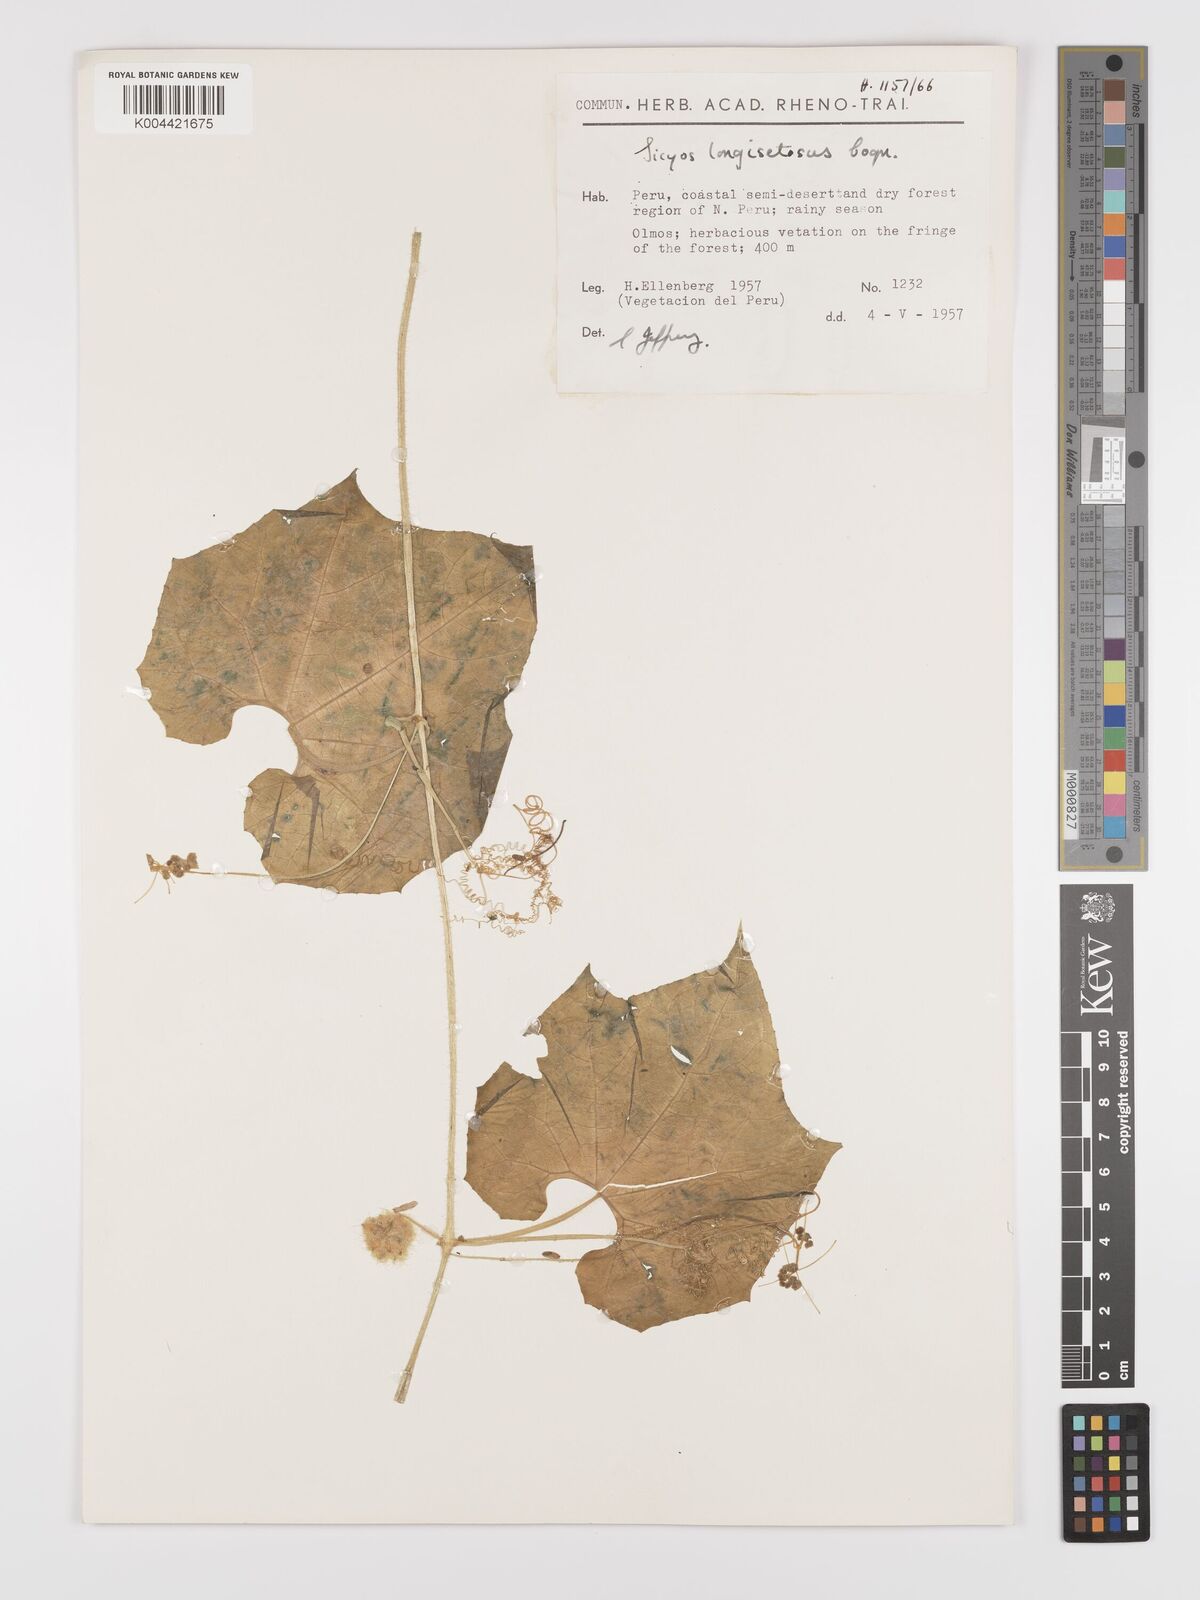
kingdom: Plantae
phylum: Tracheophyta
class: Magnoliopsida
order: Cucurbitales
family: Cucurbitaceae
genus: Sicyos
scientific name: Sicyos longisetosus
